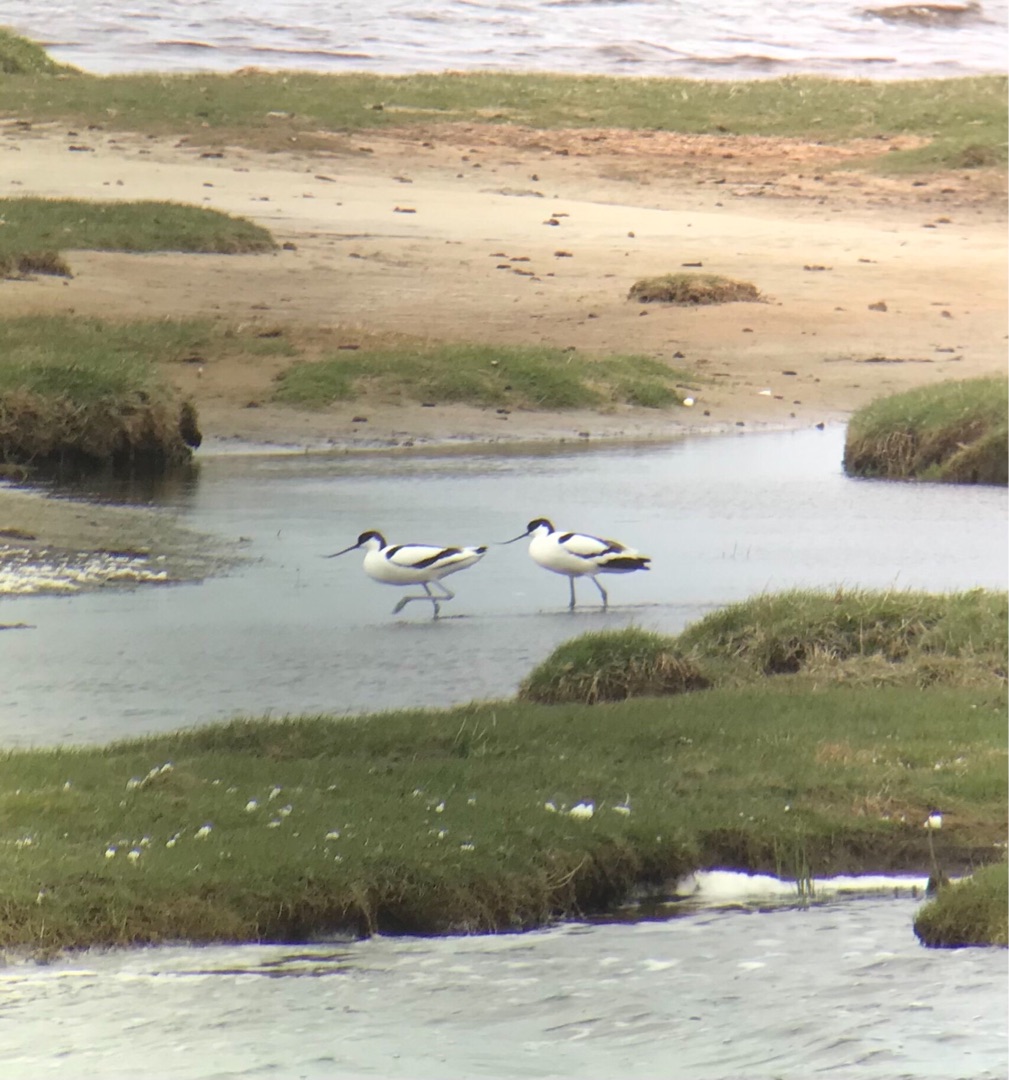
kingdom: Animalia
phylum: Chordata
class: Aves
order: Charadriiformes
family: Recurvirostridae
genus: Recurvirostra
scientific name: Recurvirostra avosetta
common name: Klyde
